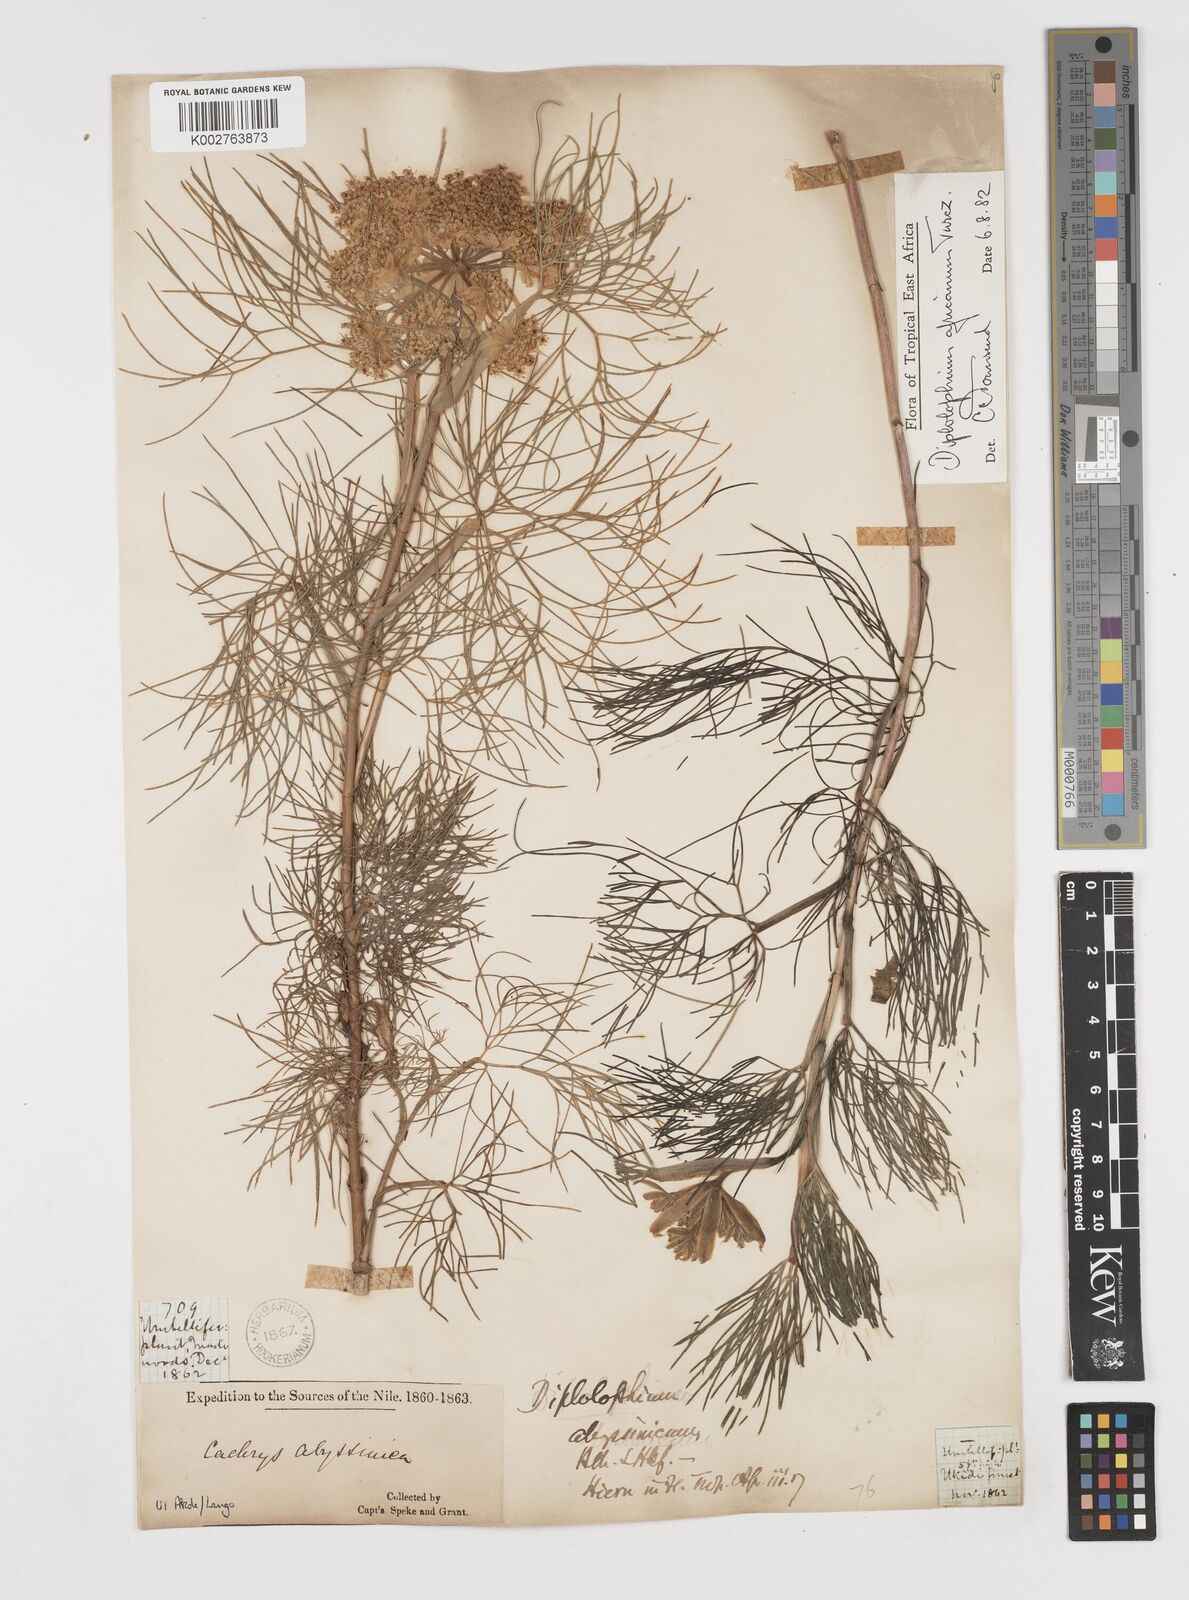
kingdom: Plantae
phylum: Tracheophyta
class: Magnoliopsida
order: Apiales
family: Apiaceae
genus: Diplolophium
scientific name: Diplolophium africanum
